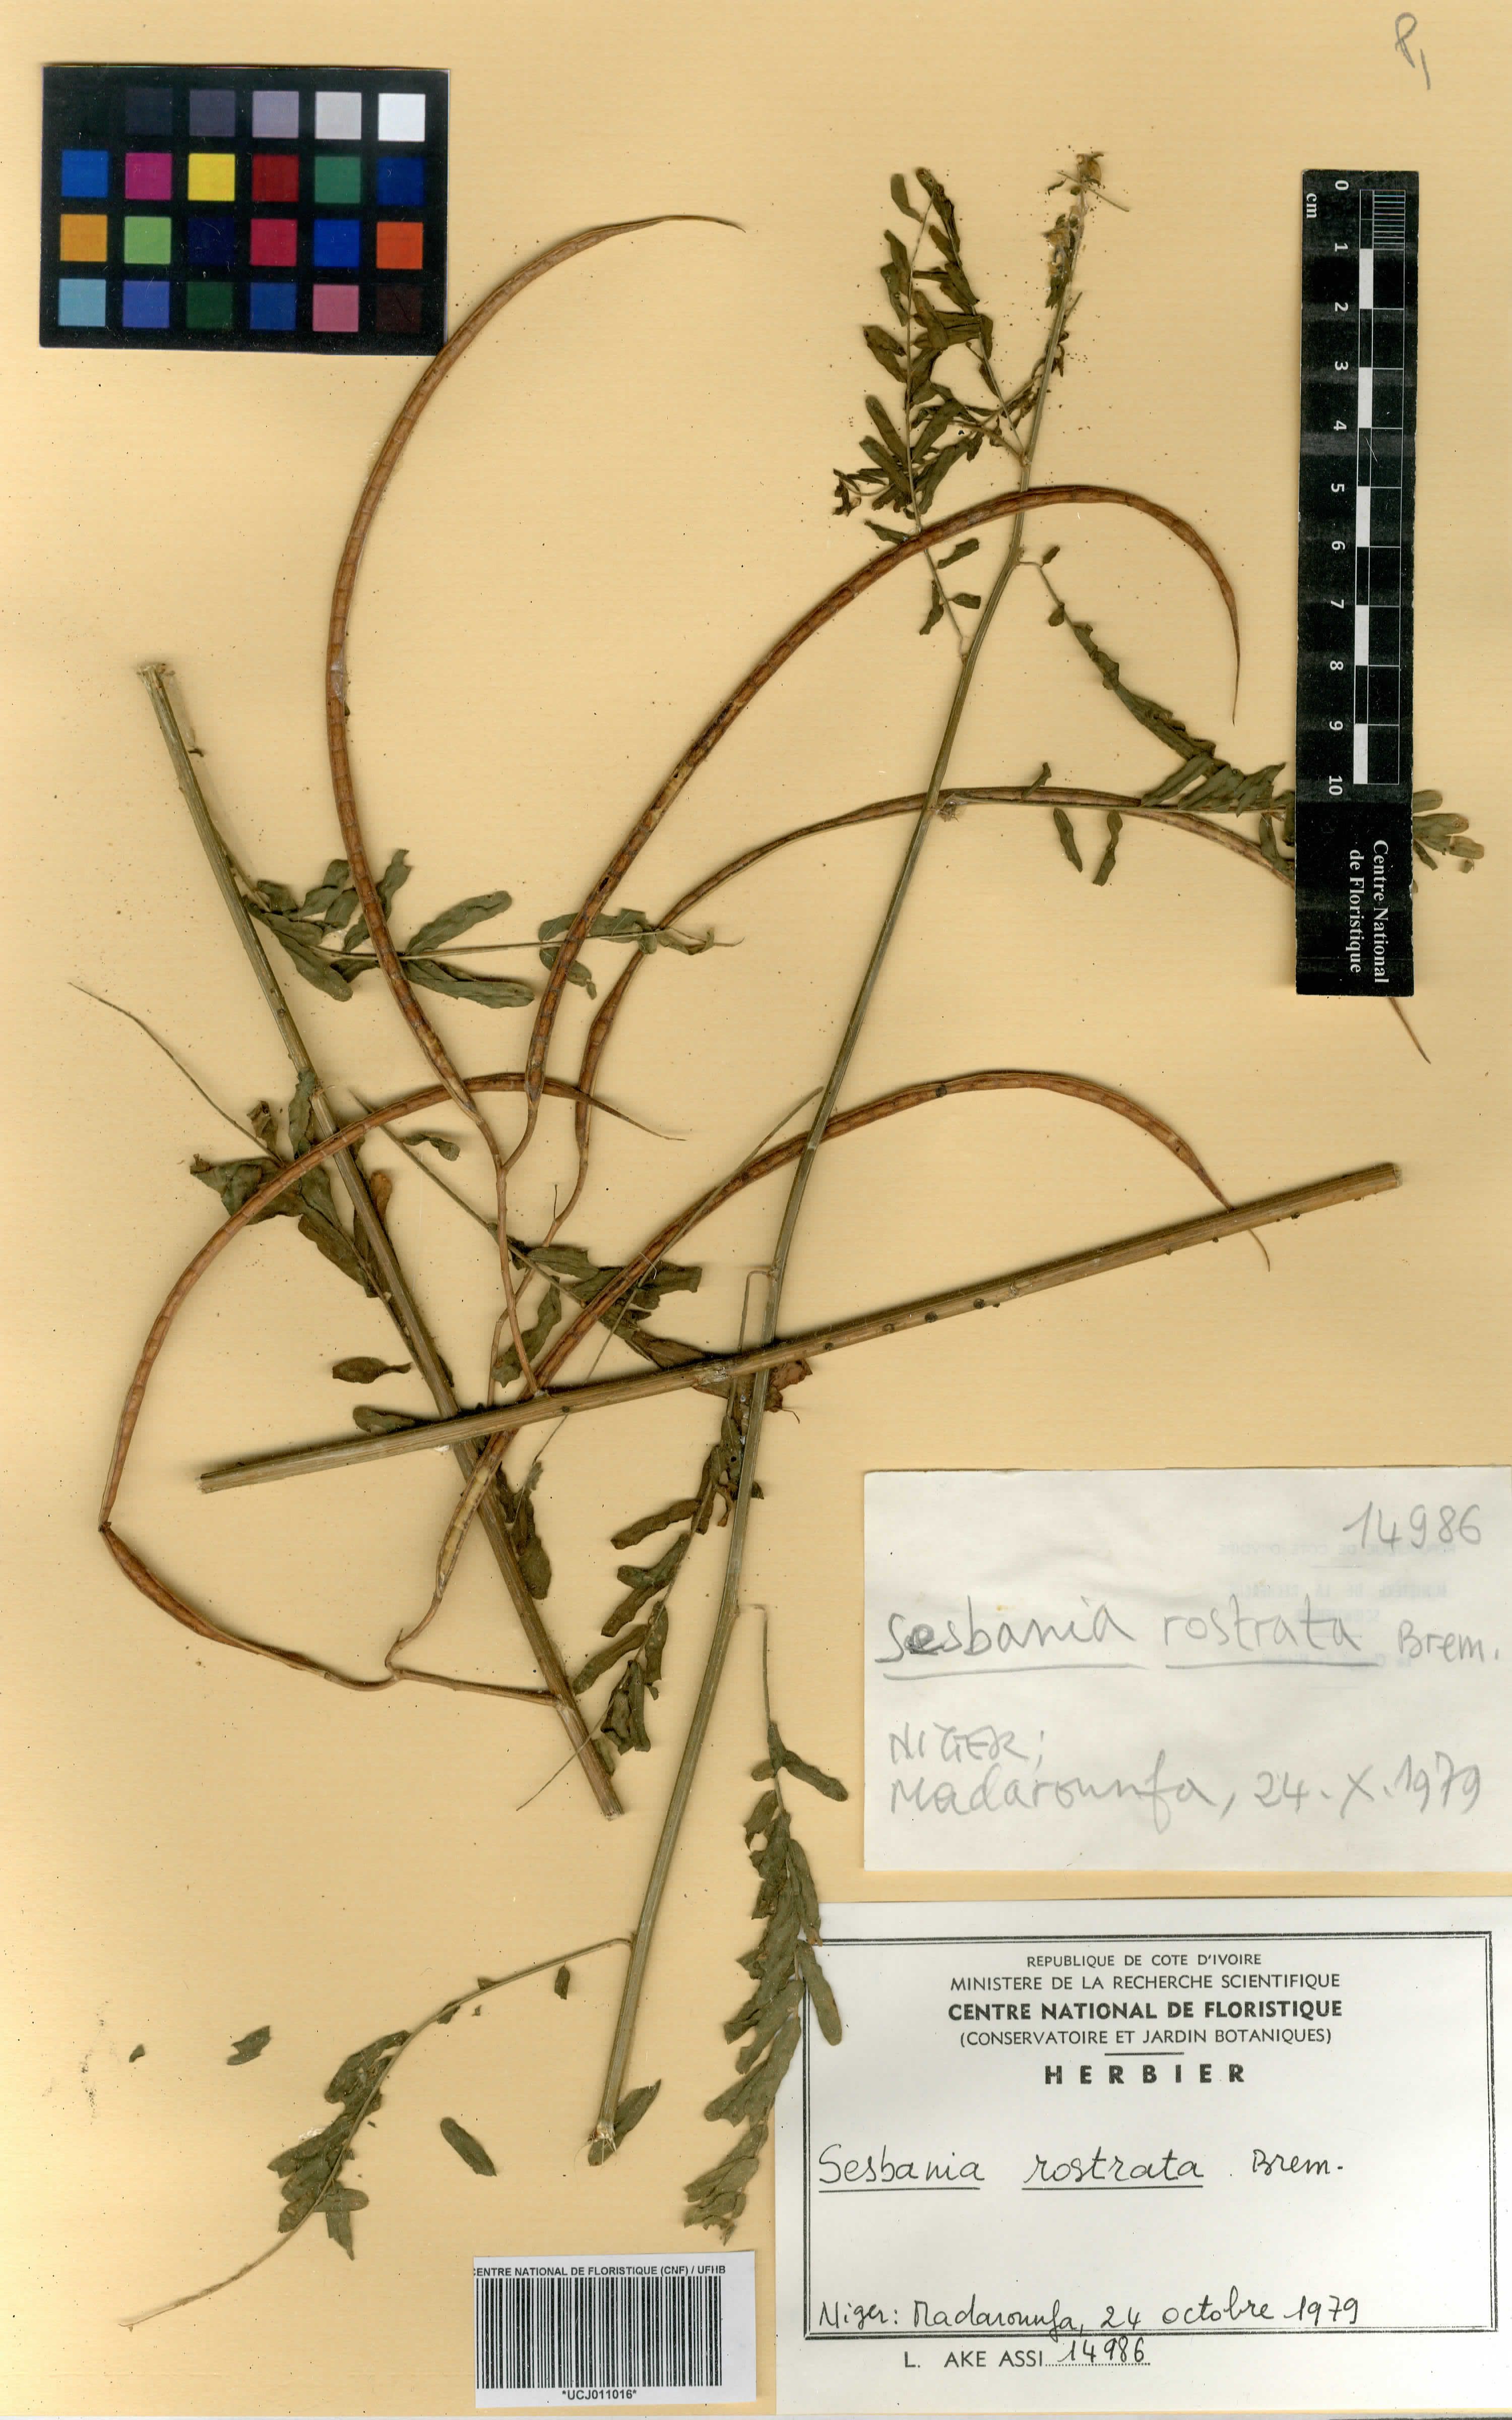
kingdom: Plantae
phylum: Tracheophyta
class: Magnoliopsida
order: Fabales
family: Fabaceae
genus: Sesbania
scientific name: Sesbania rostrata
